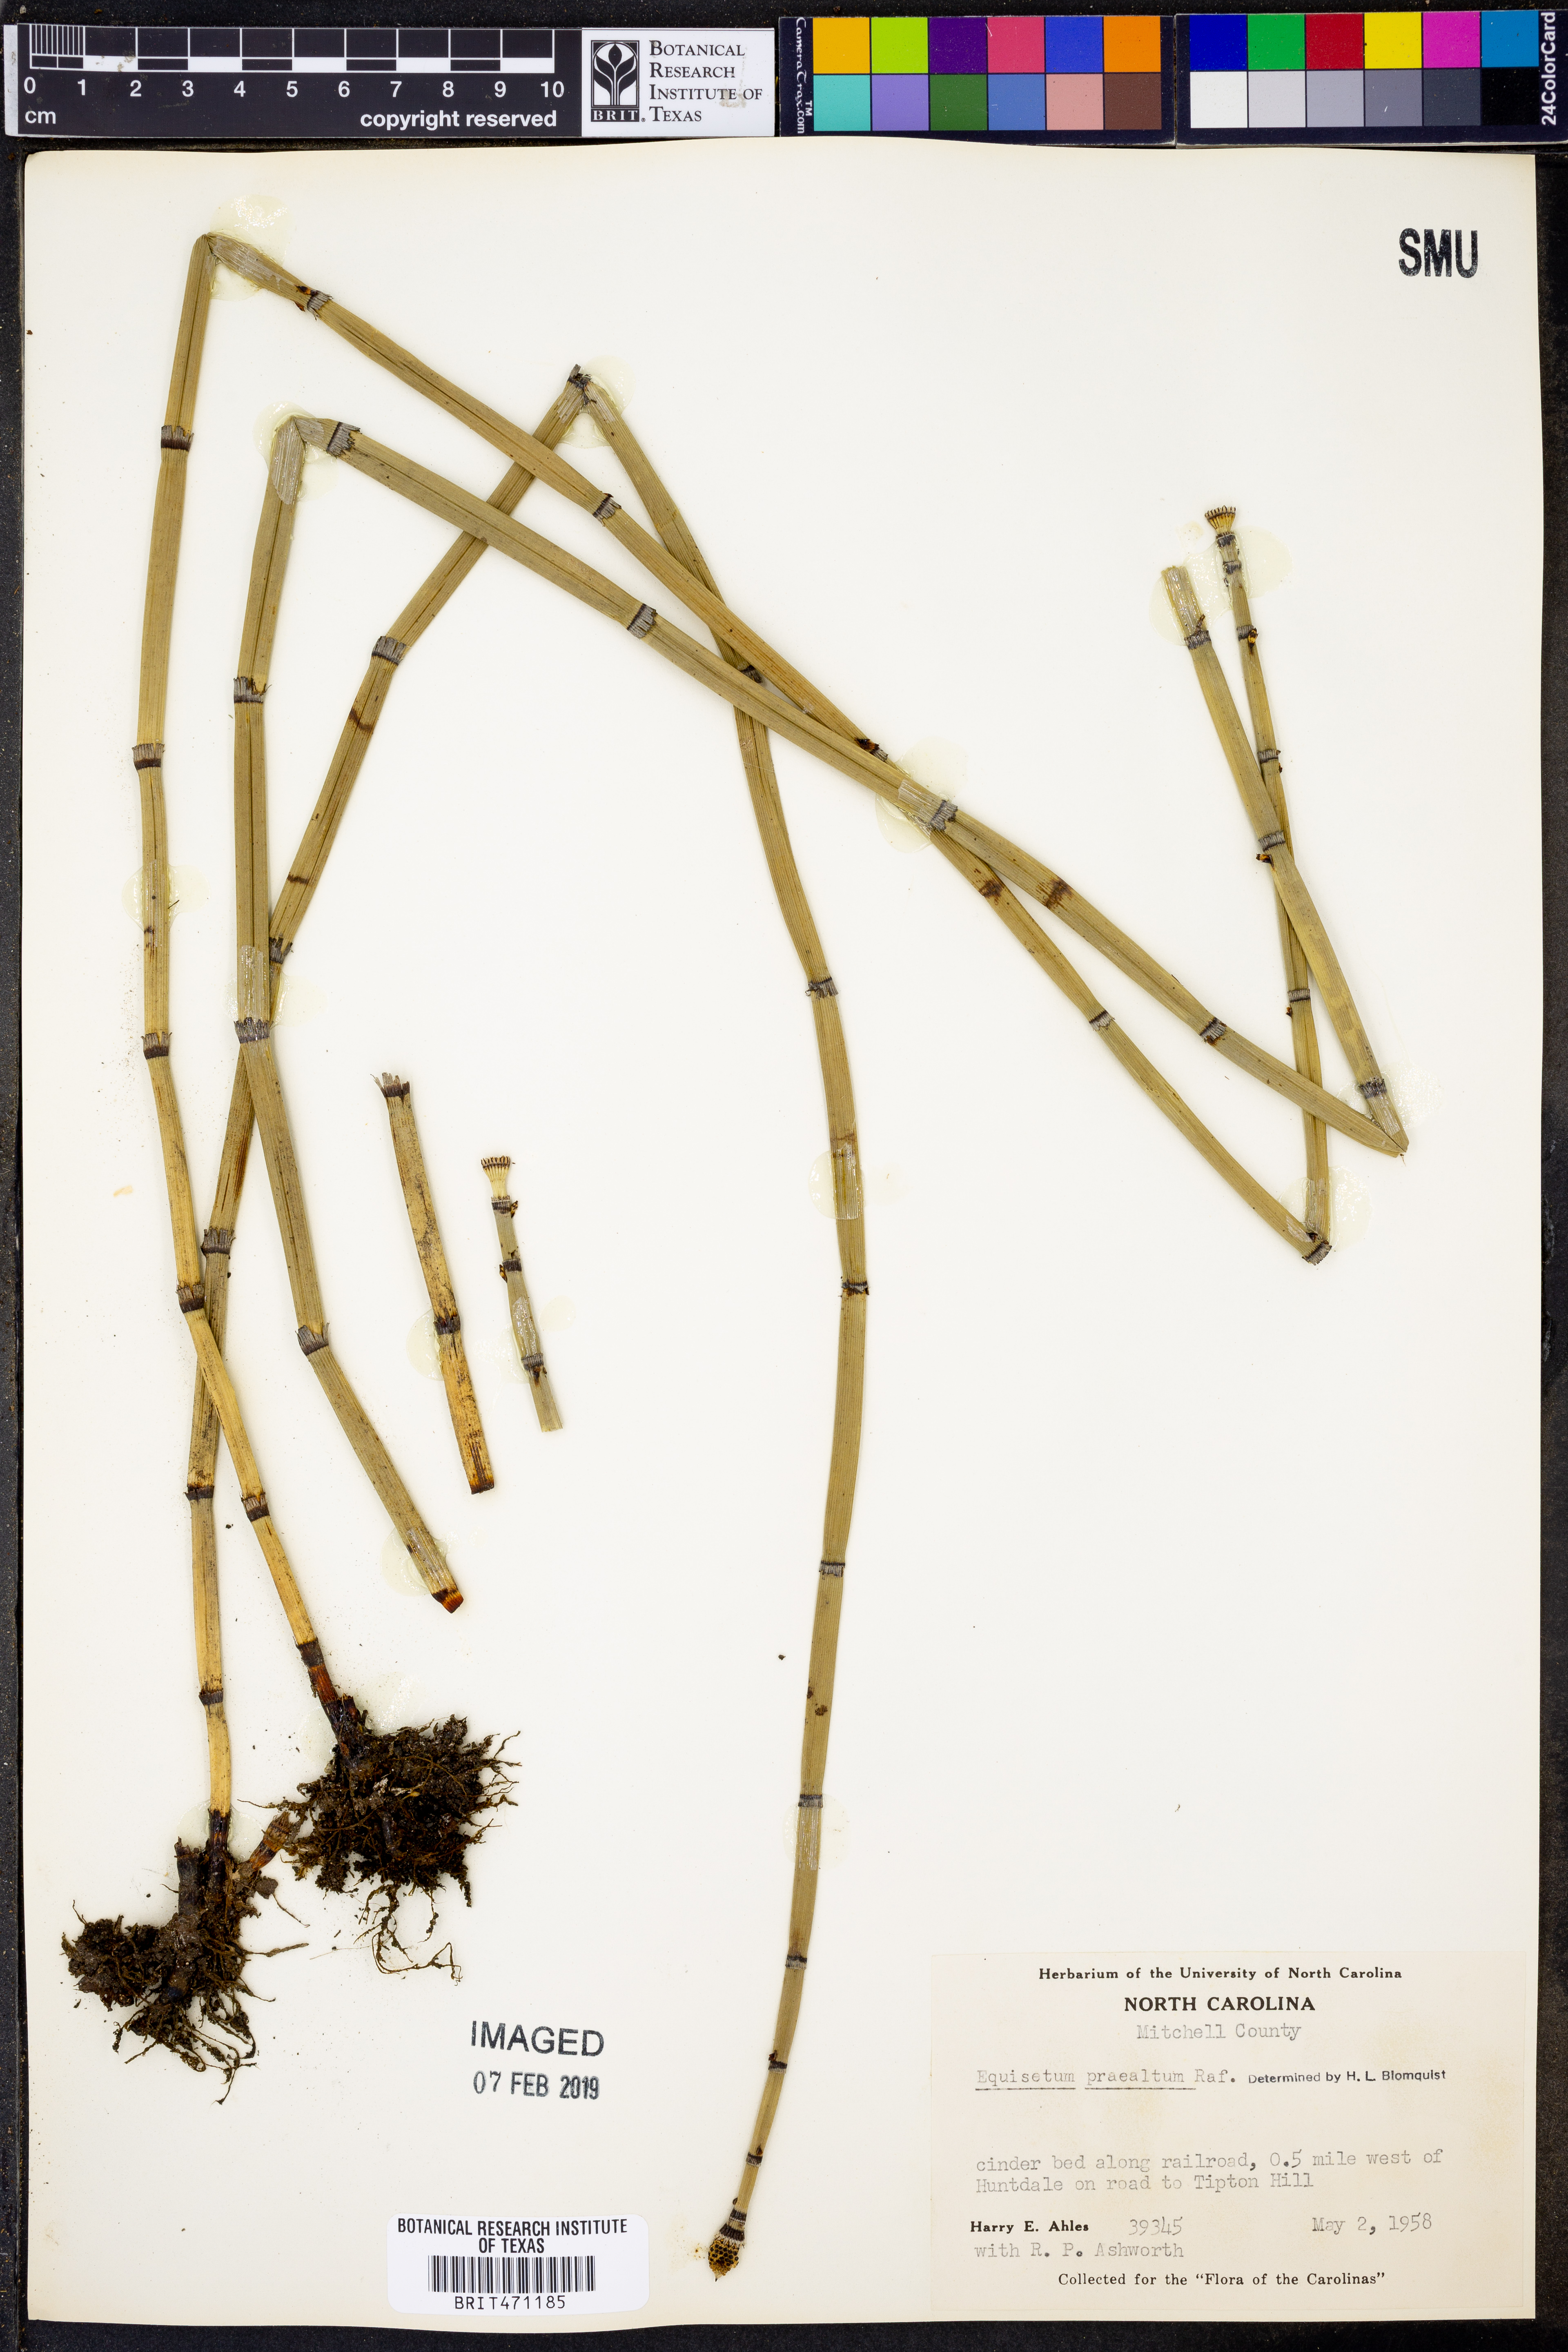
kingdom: Plantae
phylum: Tracheophyta
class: Polypodiopsida
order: Equisetales
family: Equisetaceae
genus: Equisetum
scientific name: Equisetum praealtum
